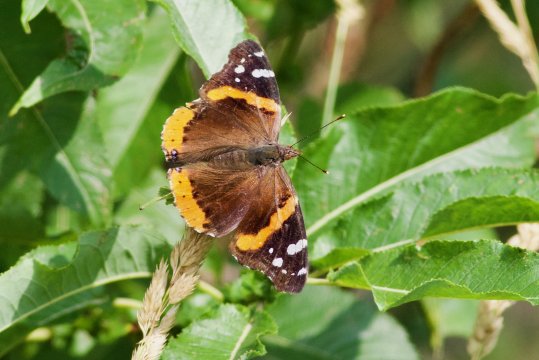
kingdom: Animalia
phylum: Arthropoda
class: Insecta
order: Lepidoptera
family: Nymphalidae
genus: Vanessa
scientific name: Vanessa atalanta
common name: Red Admiral
